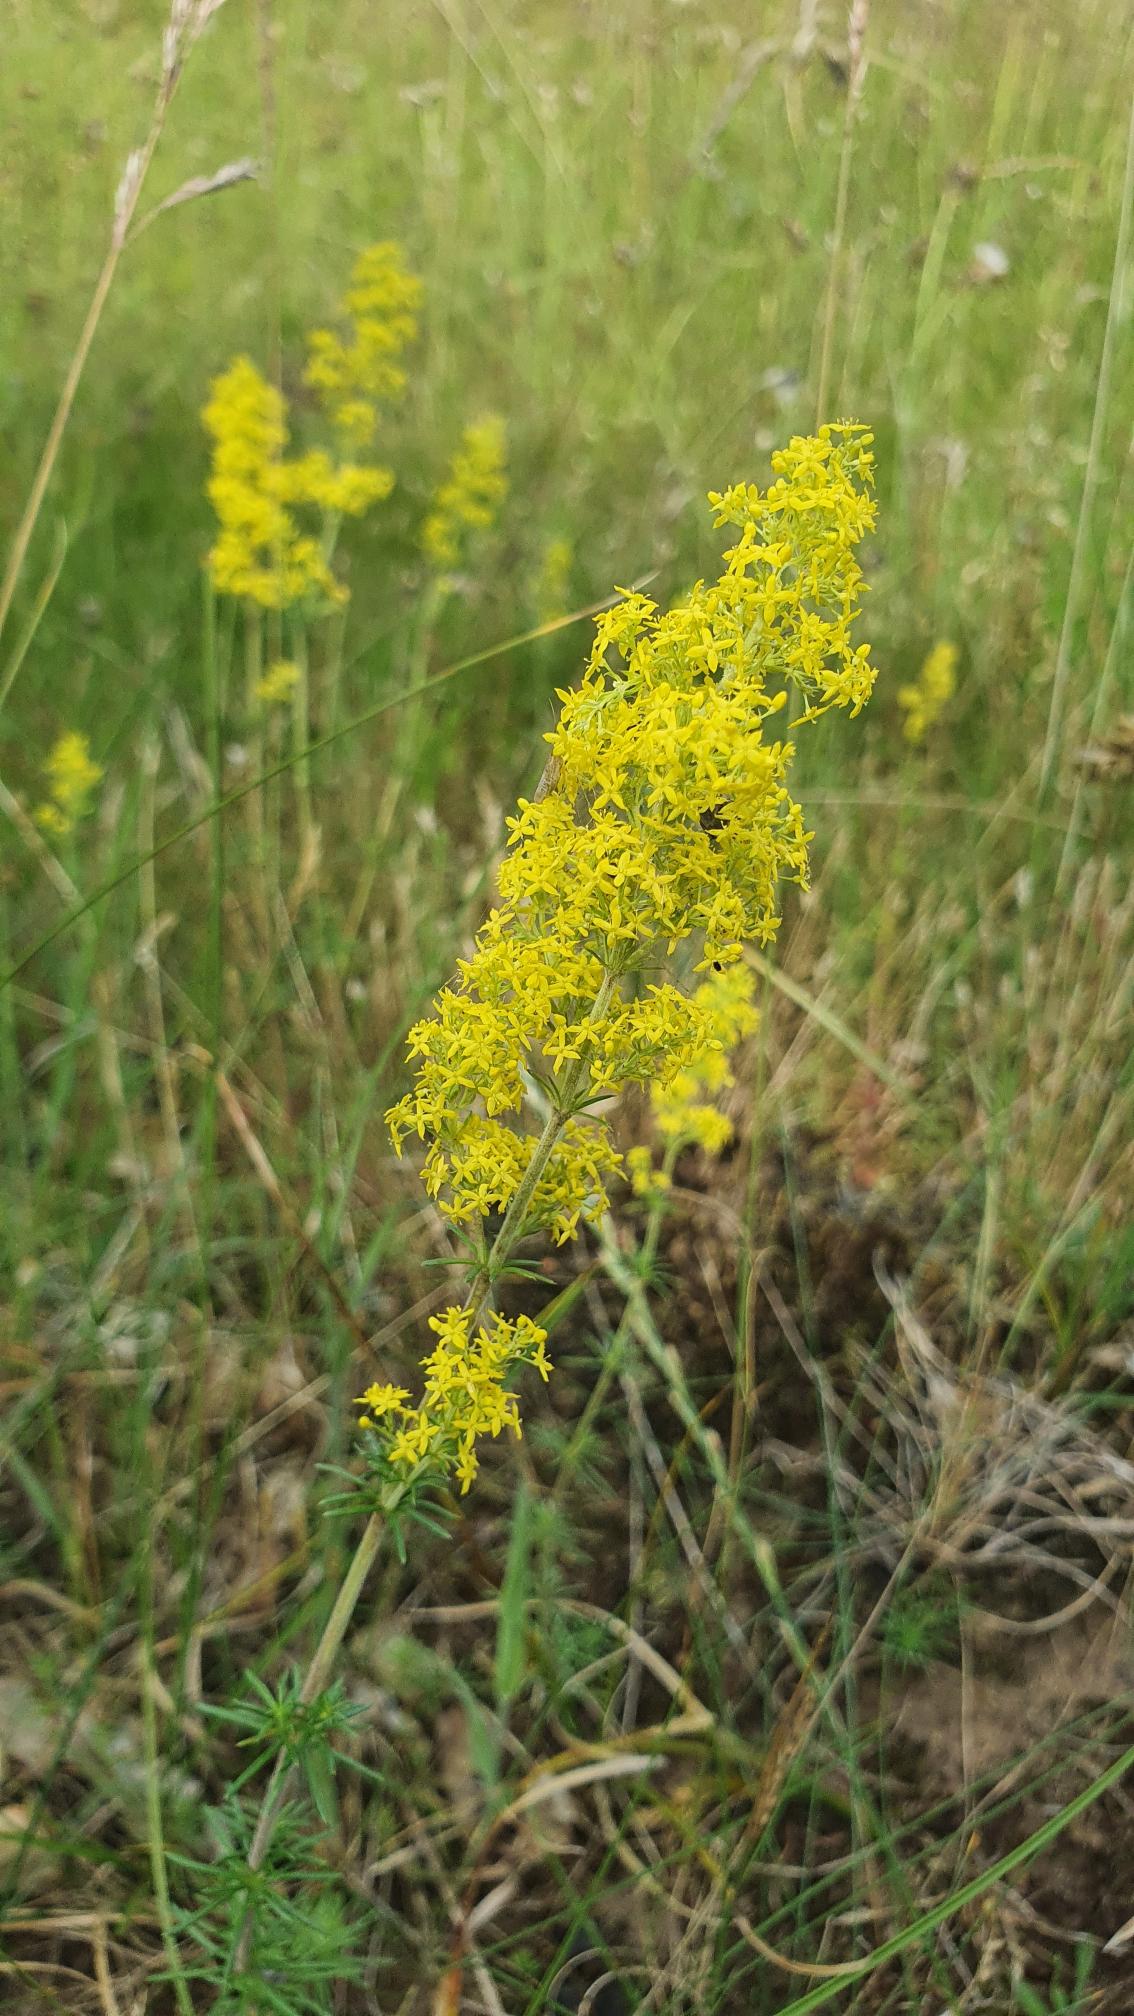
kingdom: Plantae
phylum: Tracheophyta
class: Magnoliopsida
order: Gentianales
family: Rubiaceae
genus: Galium
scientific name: Galium verum
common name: Gul snerre
